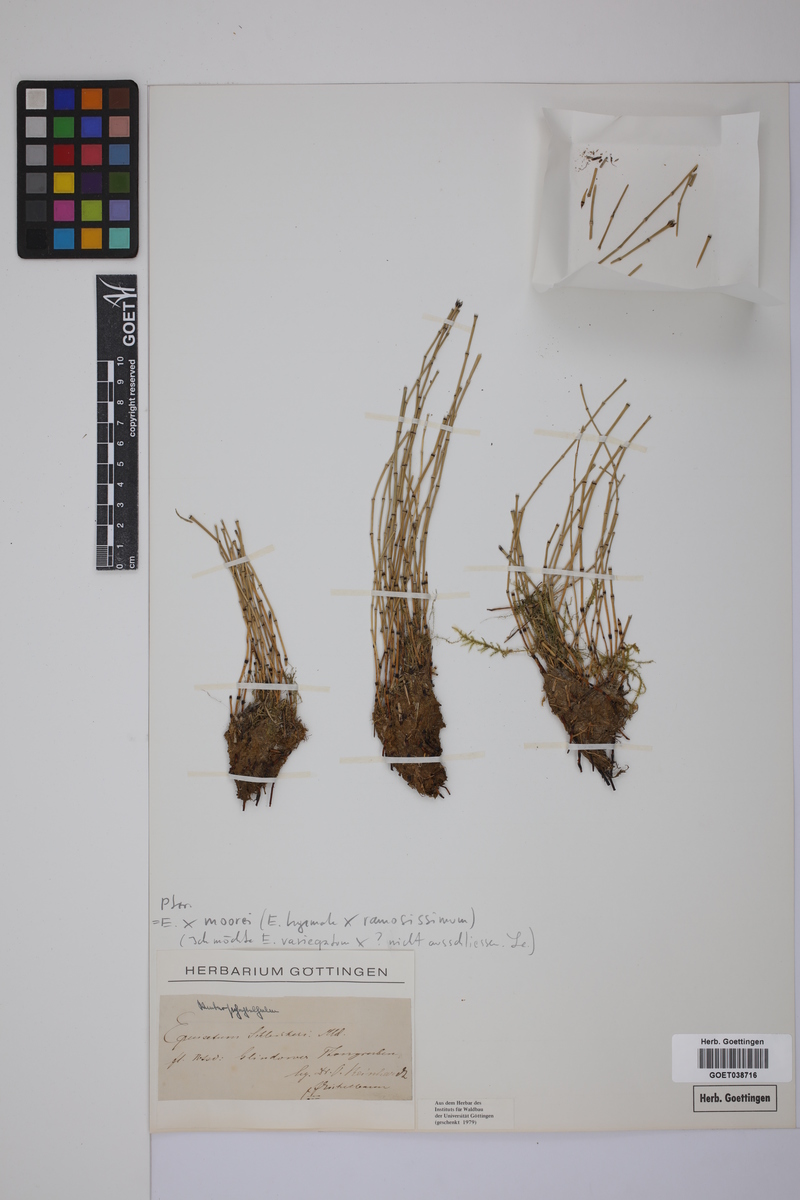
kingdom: Plantae
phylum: Tracheophyta
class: Polypodiopsida
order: Equisetales
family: Equisetaceae
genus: Equisetum
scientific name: Equisetum moorei
